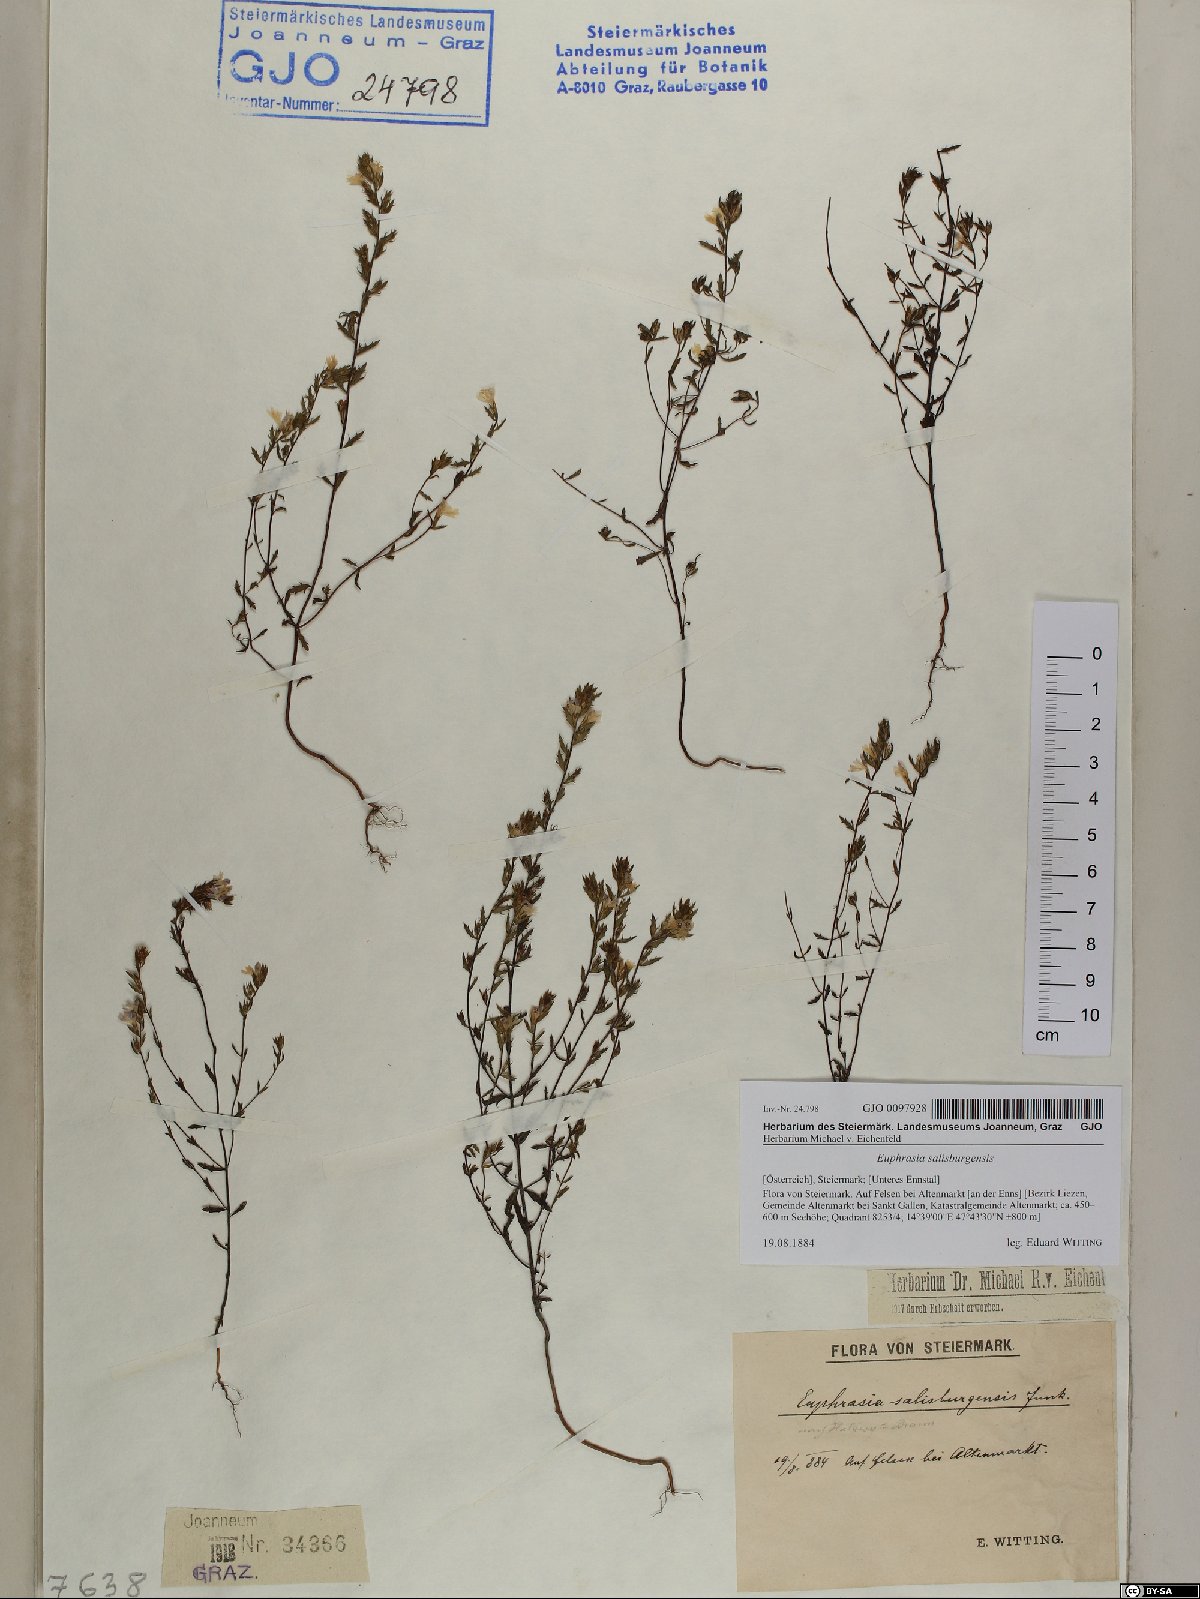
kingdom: Plantae
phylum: Tracheophyta
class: Magnoliopsida
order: Lamiales
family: Orobanchaceae
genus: Euphrasia
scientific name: Euphrasia salisburgensis
